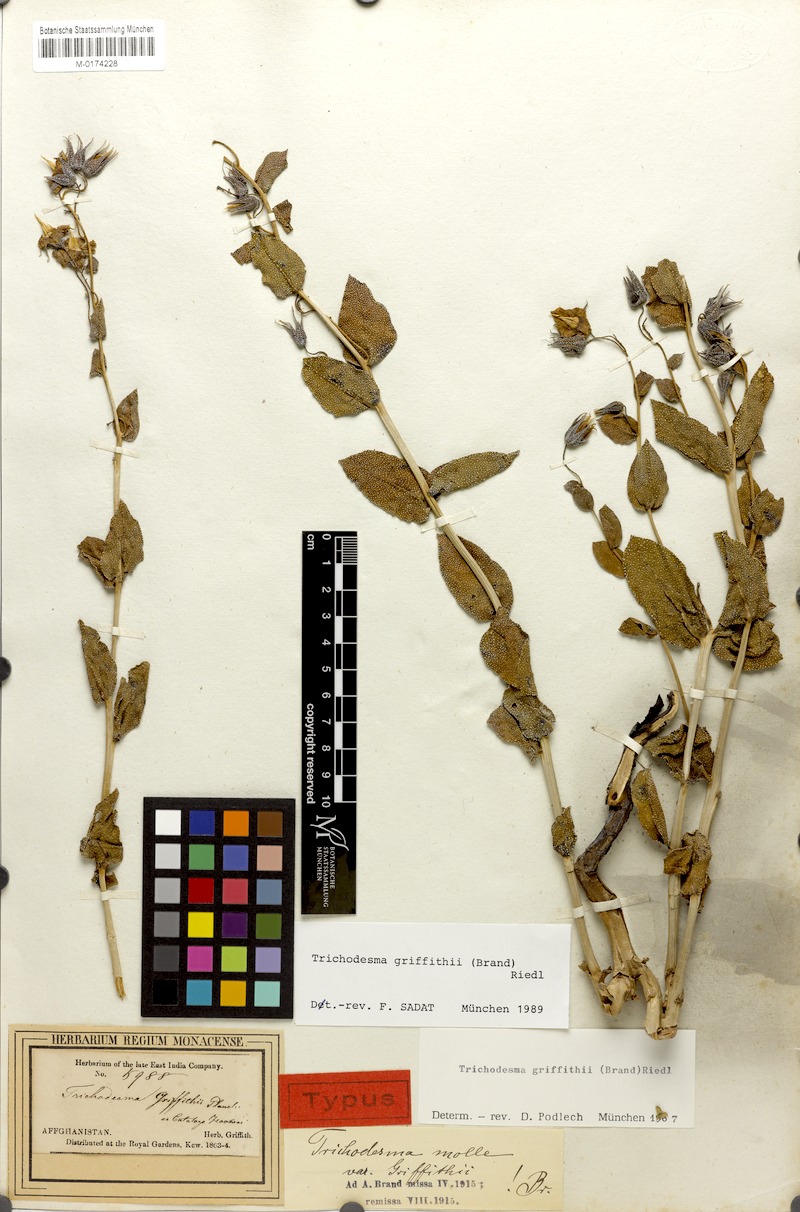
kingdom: Plantae
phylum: Tracheophyta
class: Magnoliopsida
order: Boraginales
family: Boraginaceae
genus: Trichodesma
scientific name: Trichodesma griffithii
